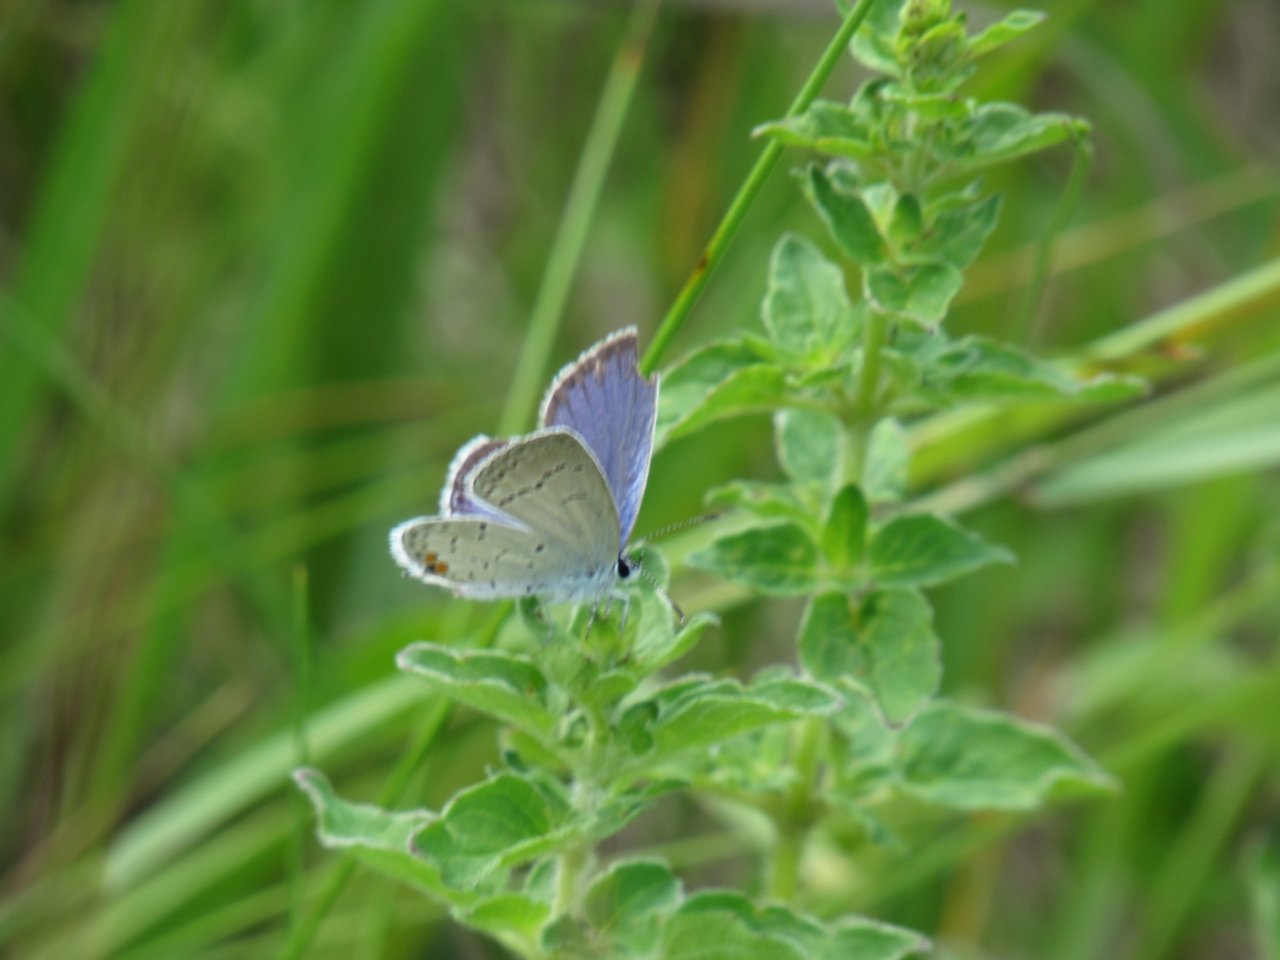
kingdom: Animalia
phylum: Arthropoda
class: Insecta
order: Lepidoptera
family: Lycaenidae
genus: Elkalyce
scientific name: Elkalyce comyntas
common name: Eastern Tailed-Blue
